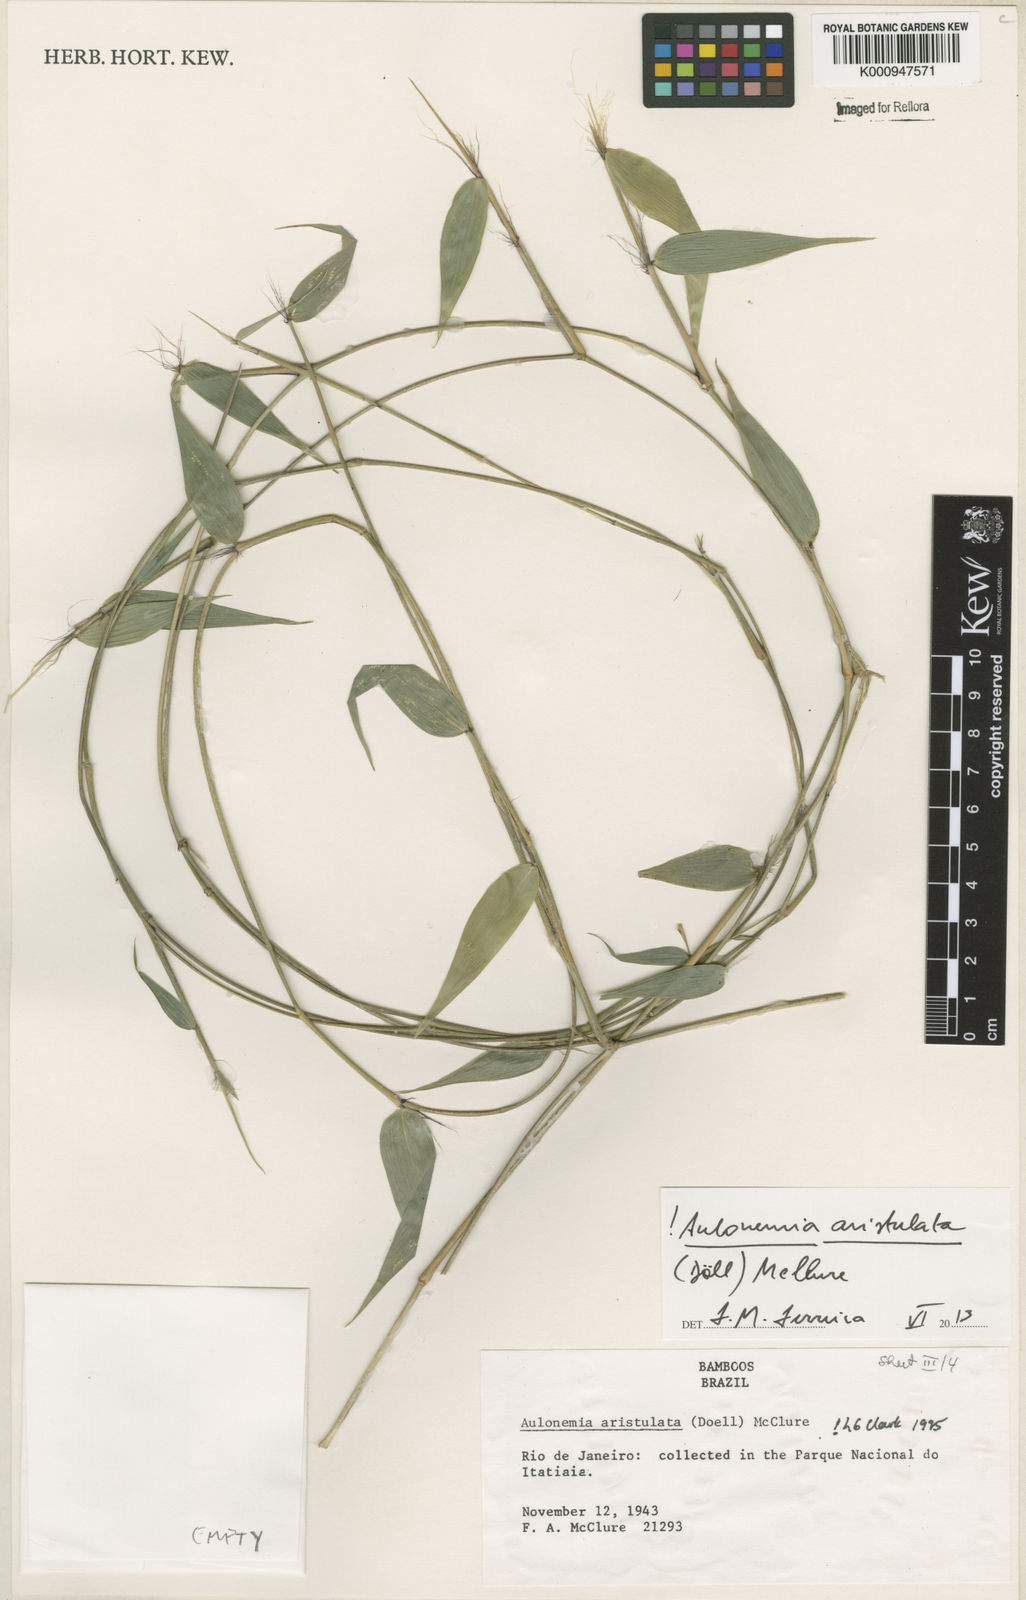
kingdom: Plantae
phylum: Tracheophyta
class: Liliopsida
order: Poales
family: Poaceae
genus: Aulonemia
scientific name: Aulonemia
